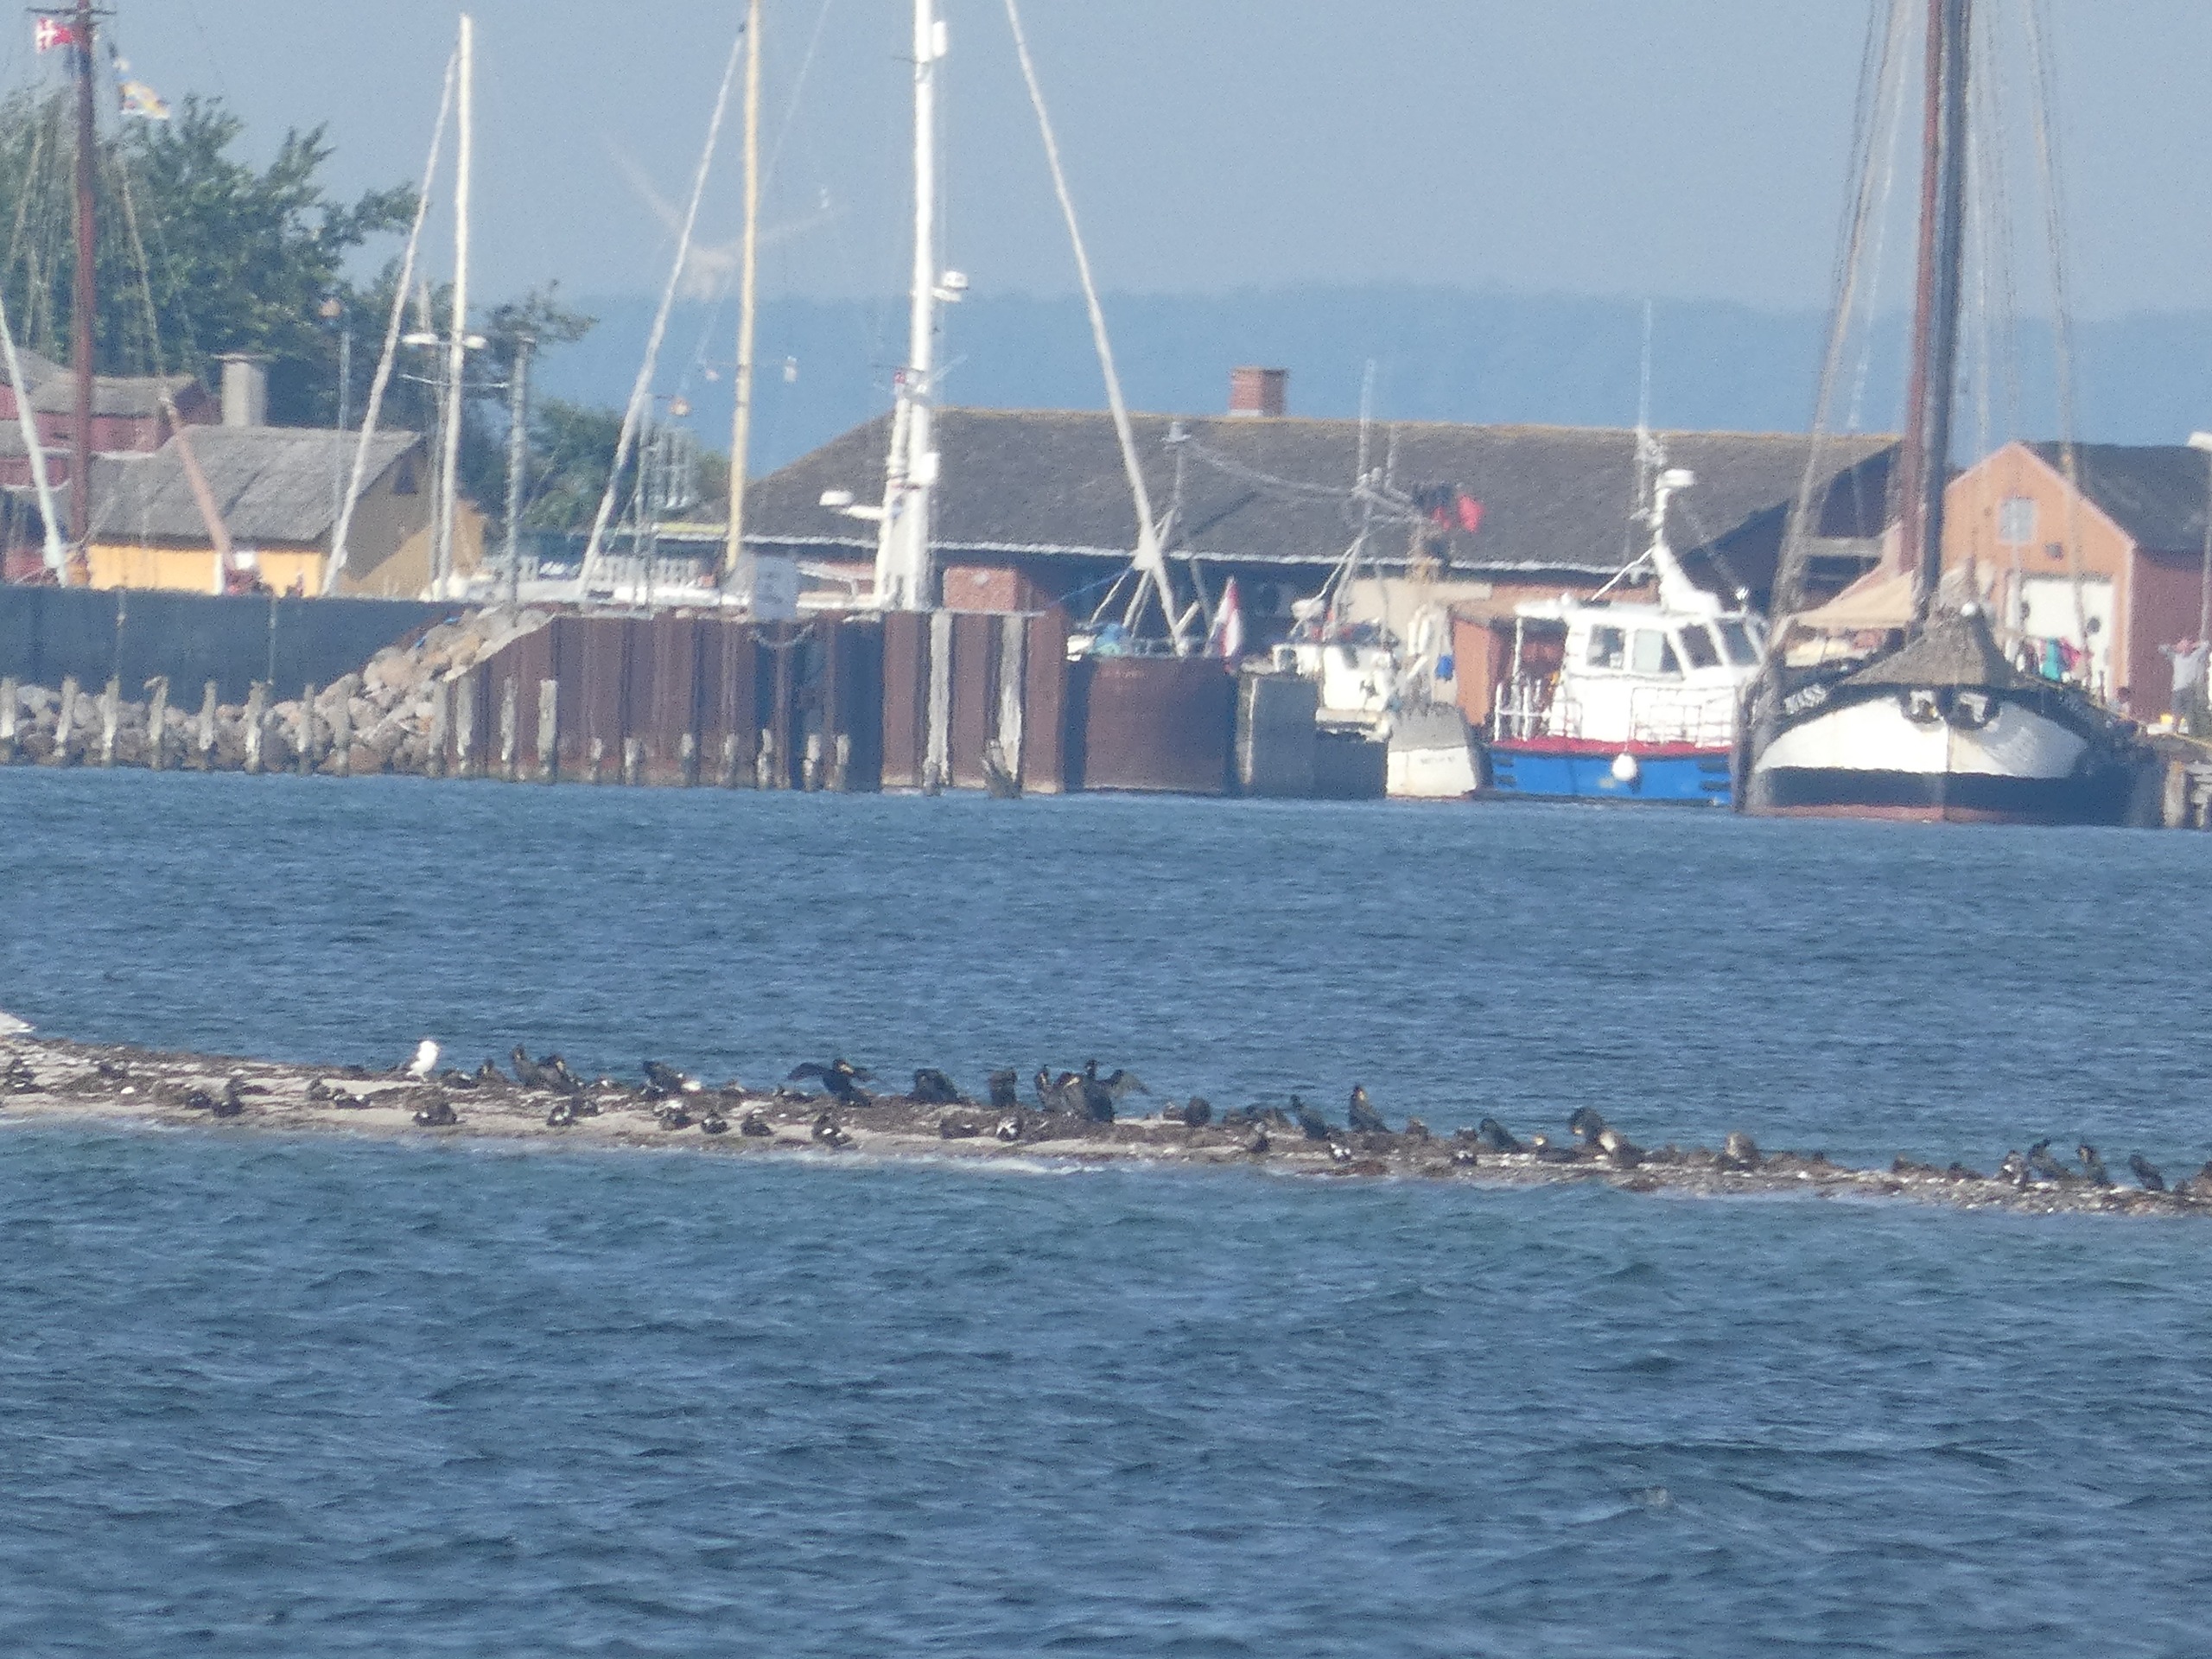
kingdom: Animalia
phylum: Chordata
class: Aves
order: Suliformes
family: Phalacrocoracidae
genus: Phalacrocorax
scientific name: Phalacrocorax carbo
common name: Skarv
